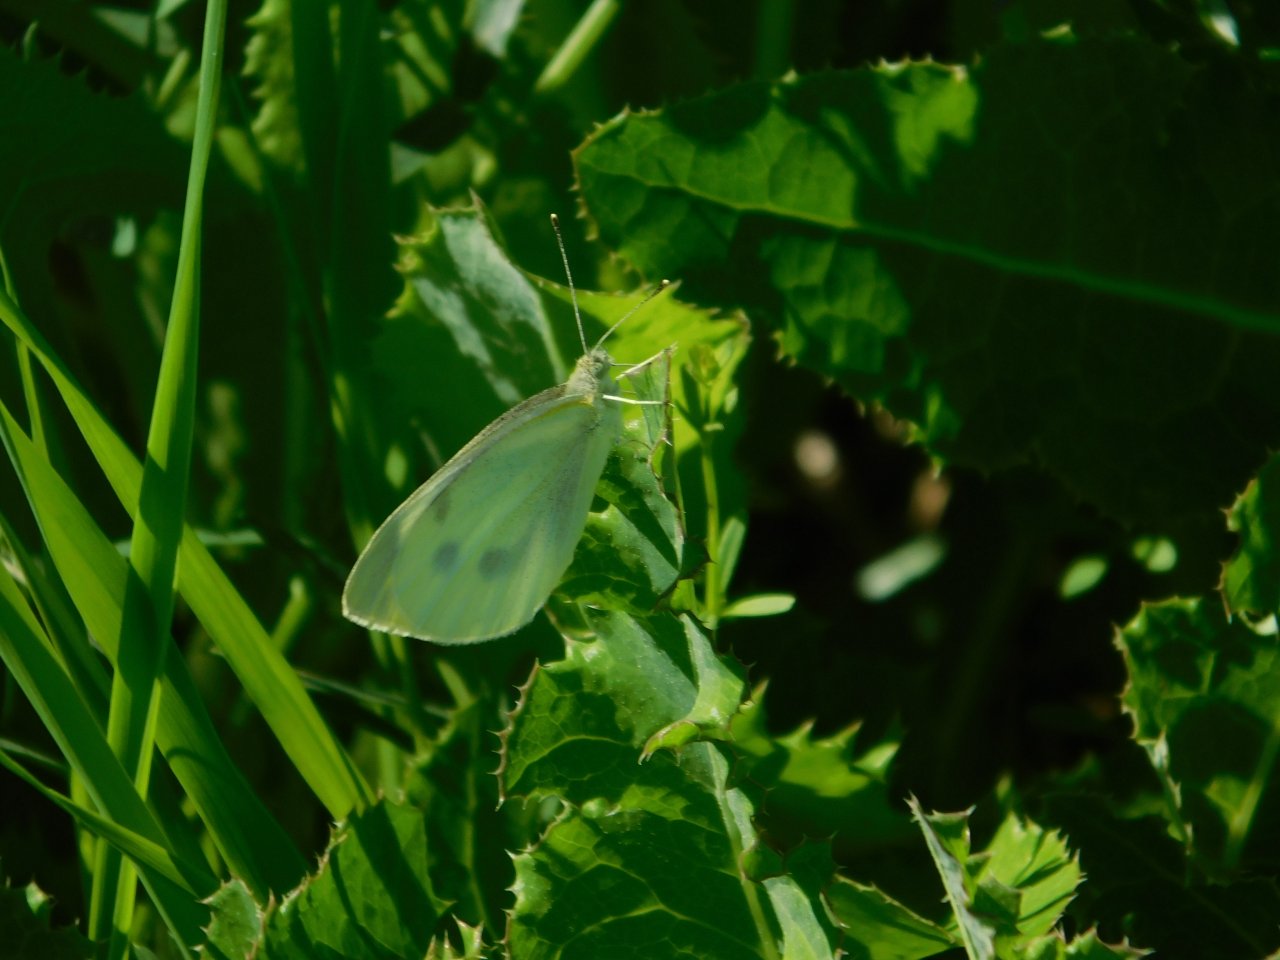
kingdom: Animalia
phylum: Arthropoda
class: Insecta
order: Lepidoptera
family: Pieridae
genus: Pieris
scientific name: Pieris rapae
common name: Cabbage White
